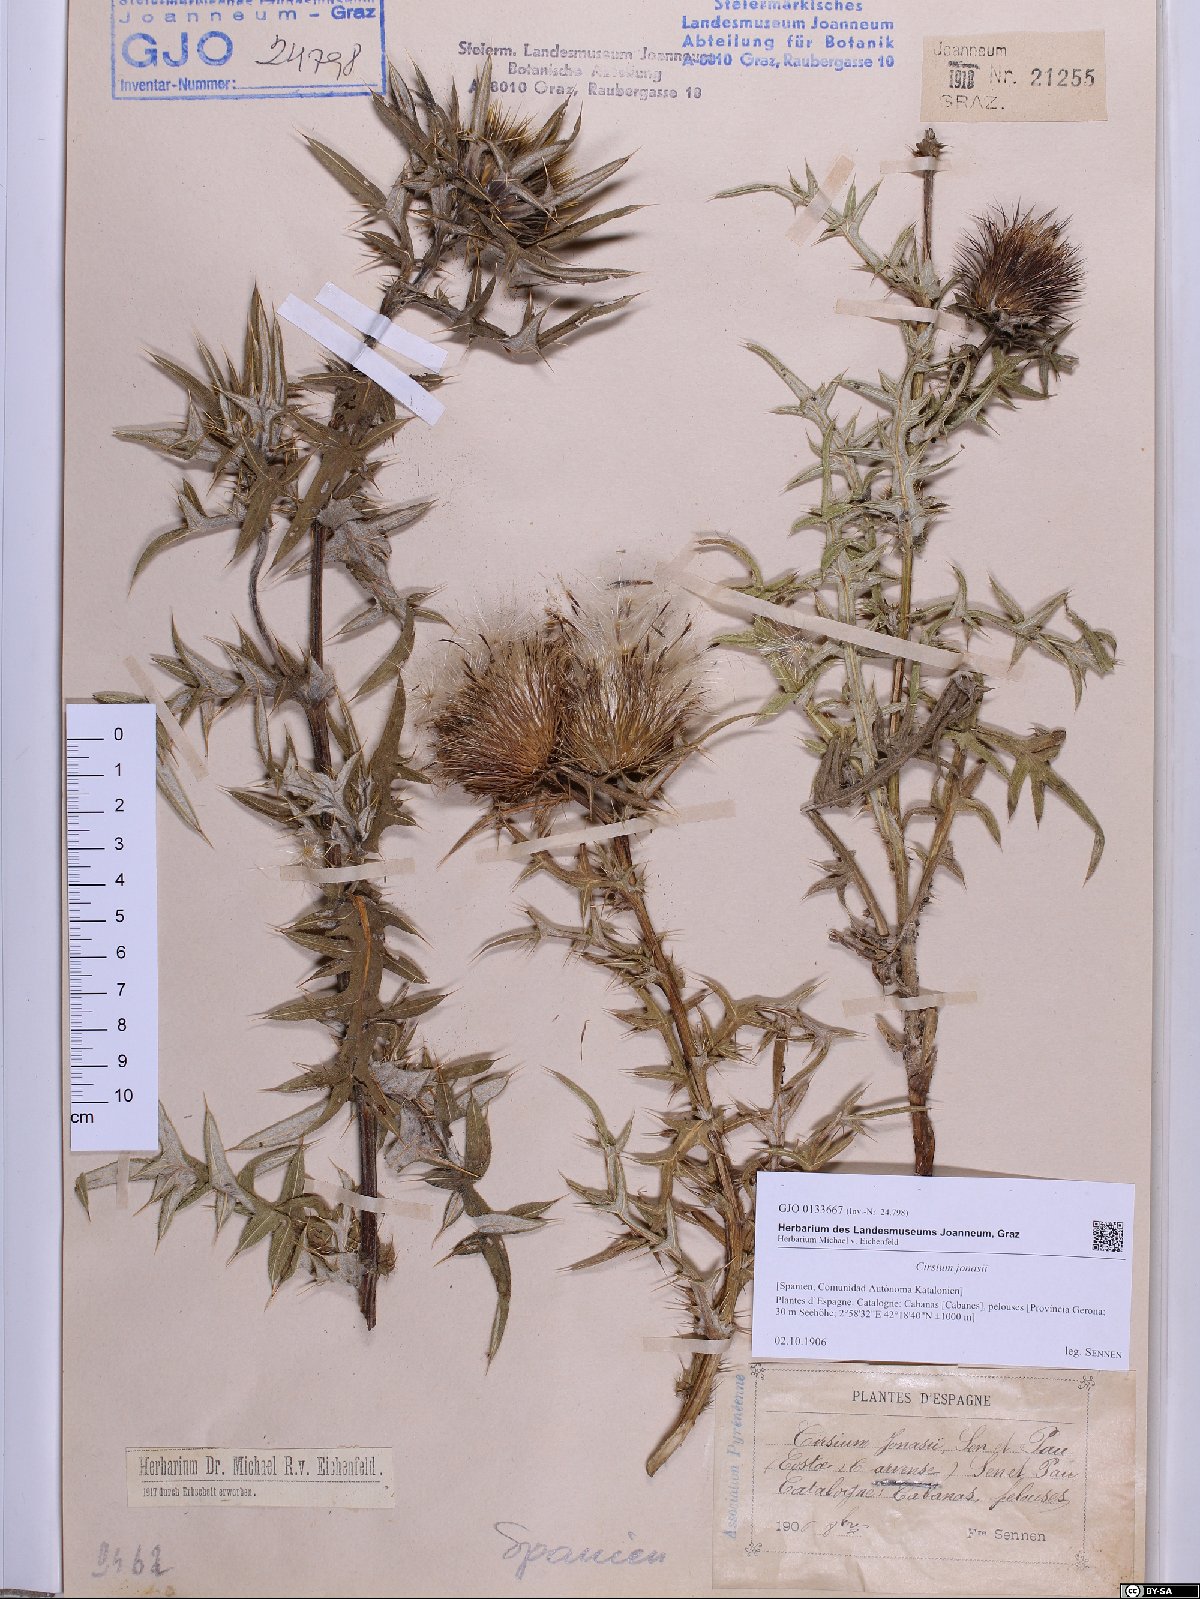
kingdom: Plantae
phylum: Tracheophyta
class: Magnoliopsida
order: Asterales
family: Asteraceae
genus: Lophiolepis
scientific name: Lophiolepis richteriana
